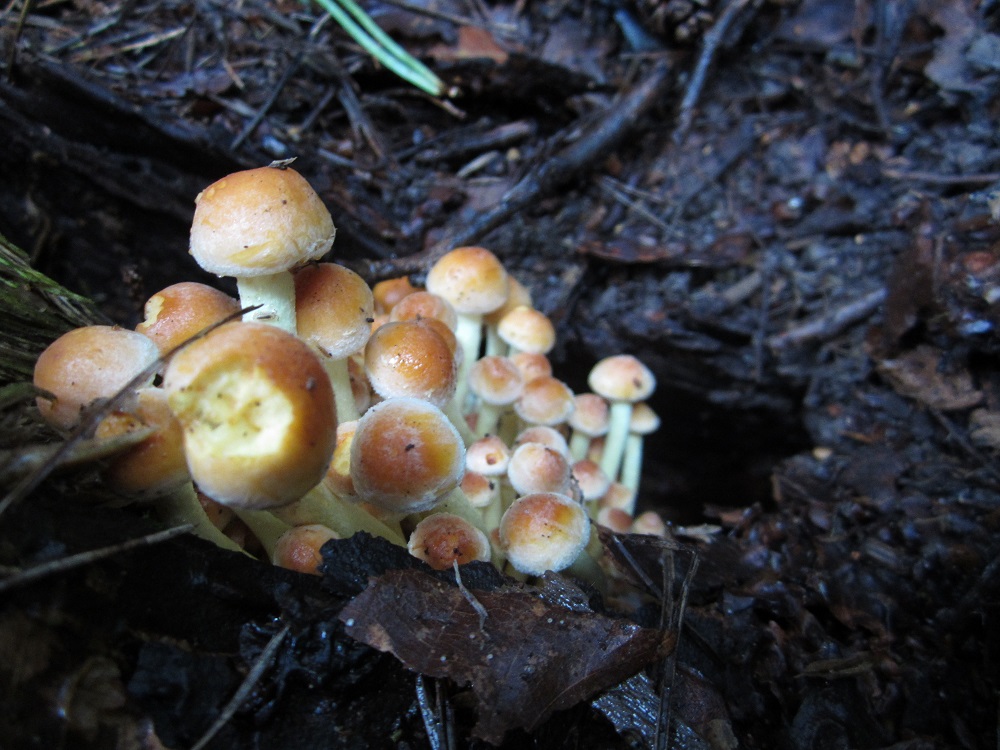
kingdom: Fungi
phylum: Basidiomycota
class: Agaricomycetes
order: Agaricales
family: Strophariaceae
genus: Hypholoma
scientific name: Hypholoma fasciculare
